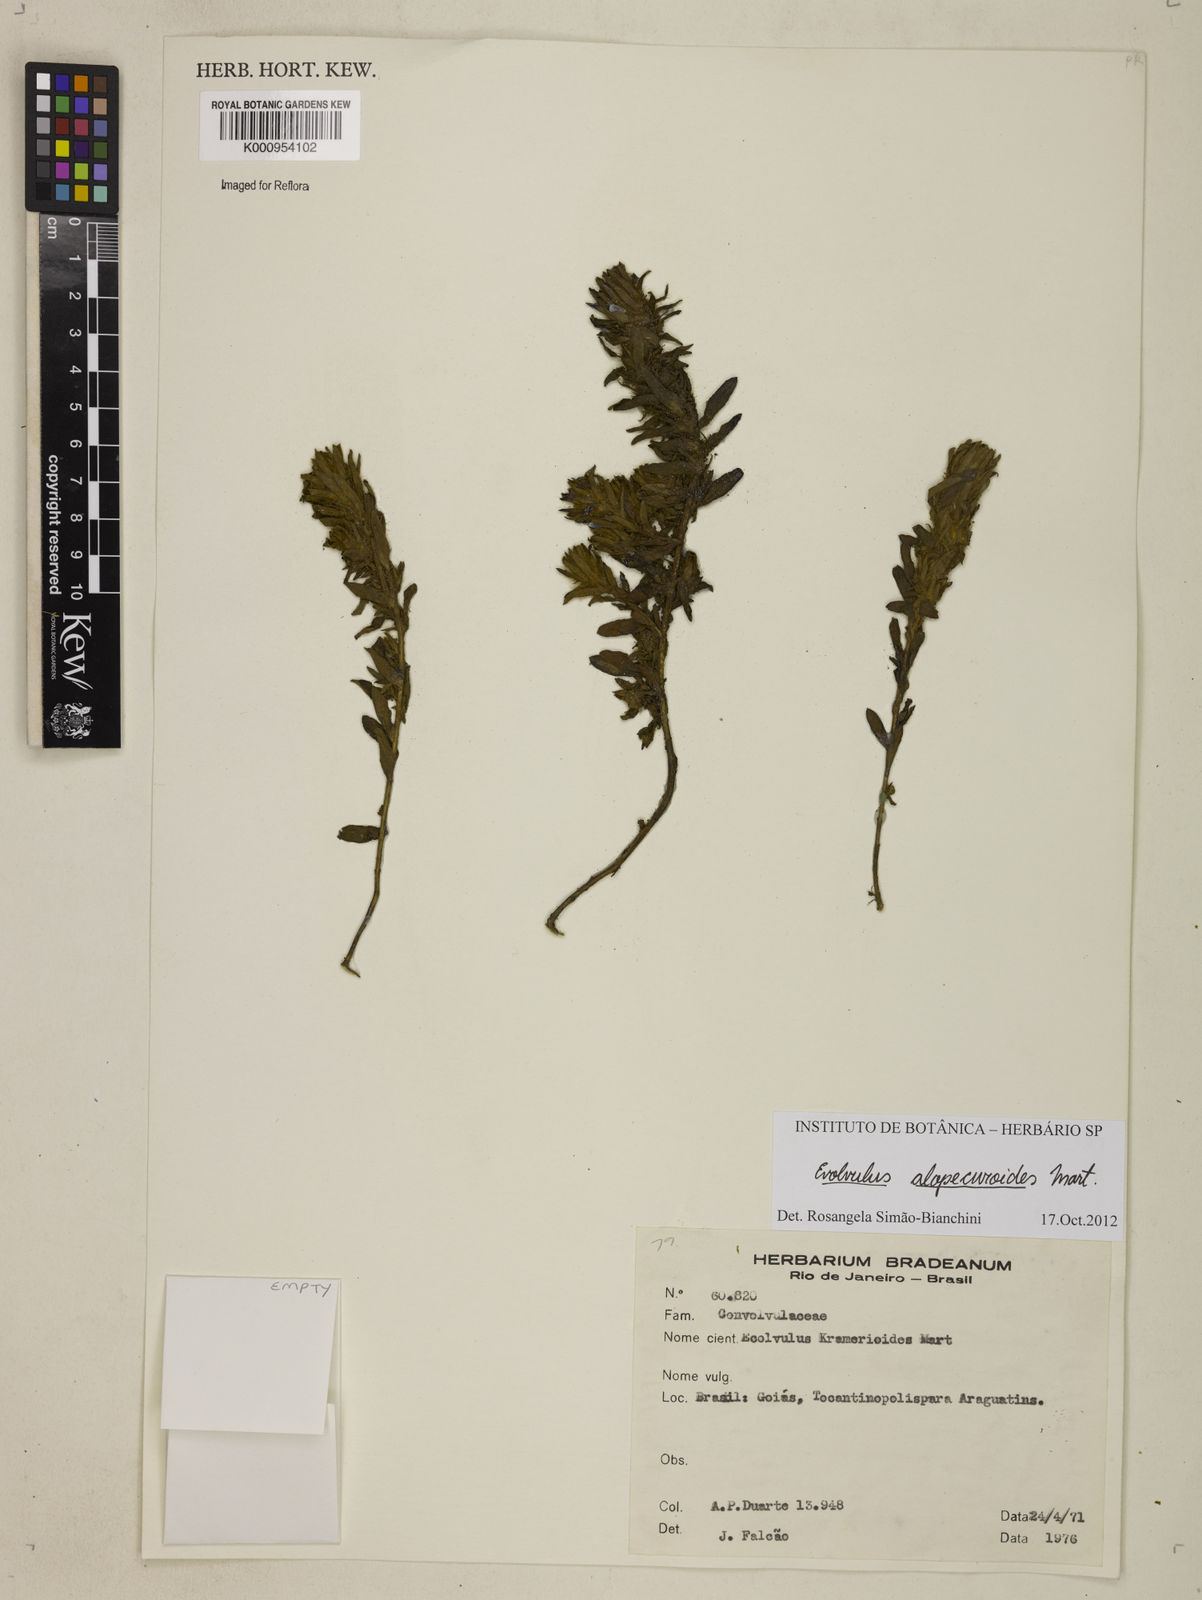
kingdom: Plantae
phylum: Tracheophyta
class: Magnoliopsida
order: Solanales
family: Convolvulaceae
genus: Evolvulus
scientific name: Evolvulus alopecuroides
